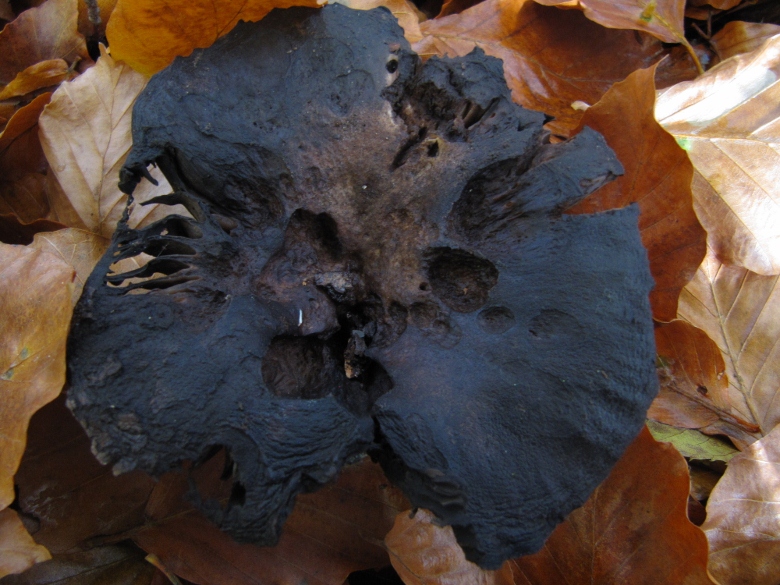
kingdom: Fungi
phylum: Basidiomycota
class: Agaricomycetes
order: Russulales
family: Russulaceae
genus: Russula
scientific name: Russula adusta
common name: sværtende skørhat
